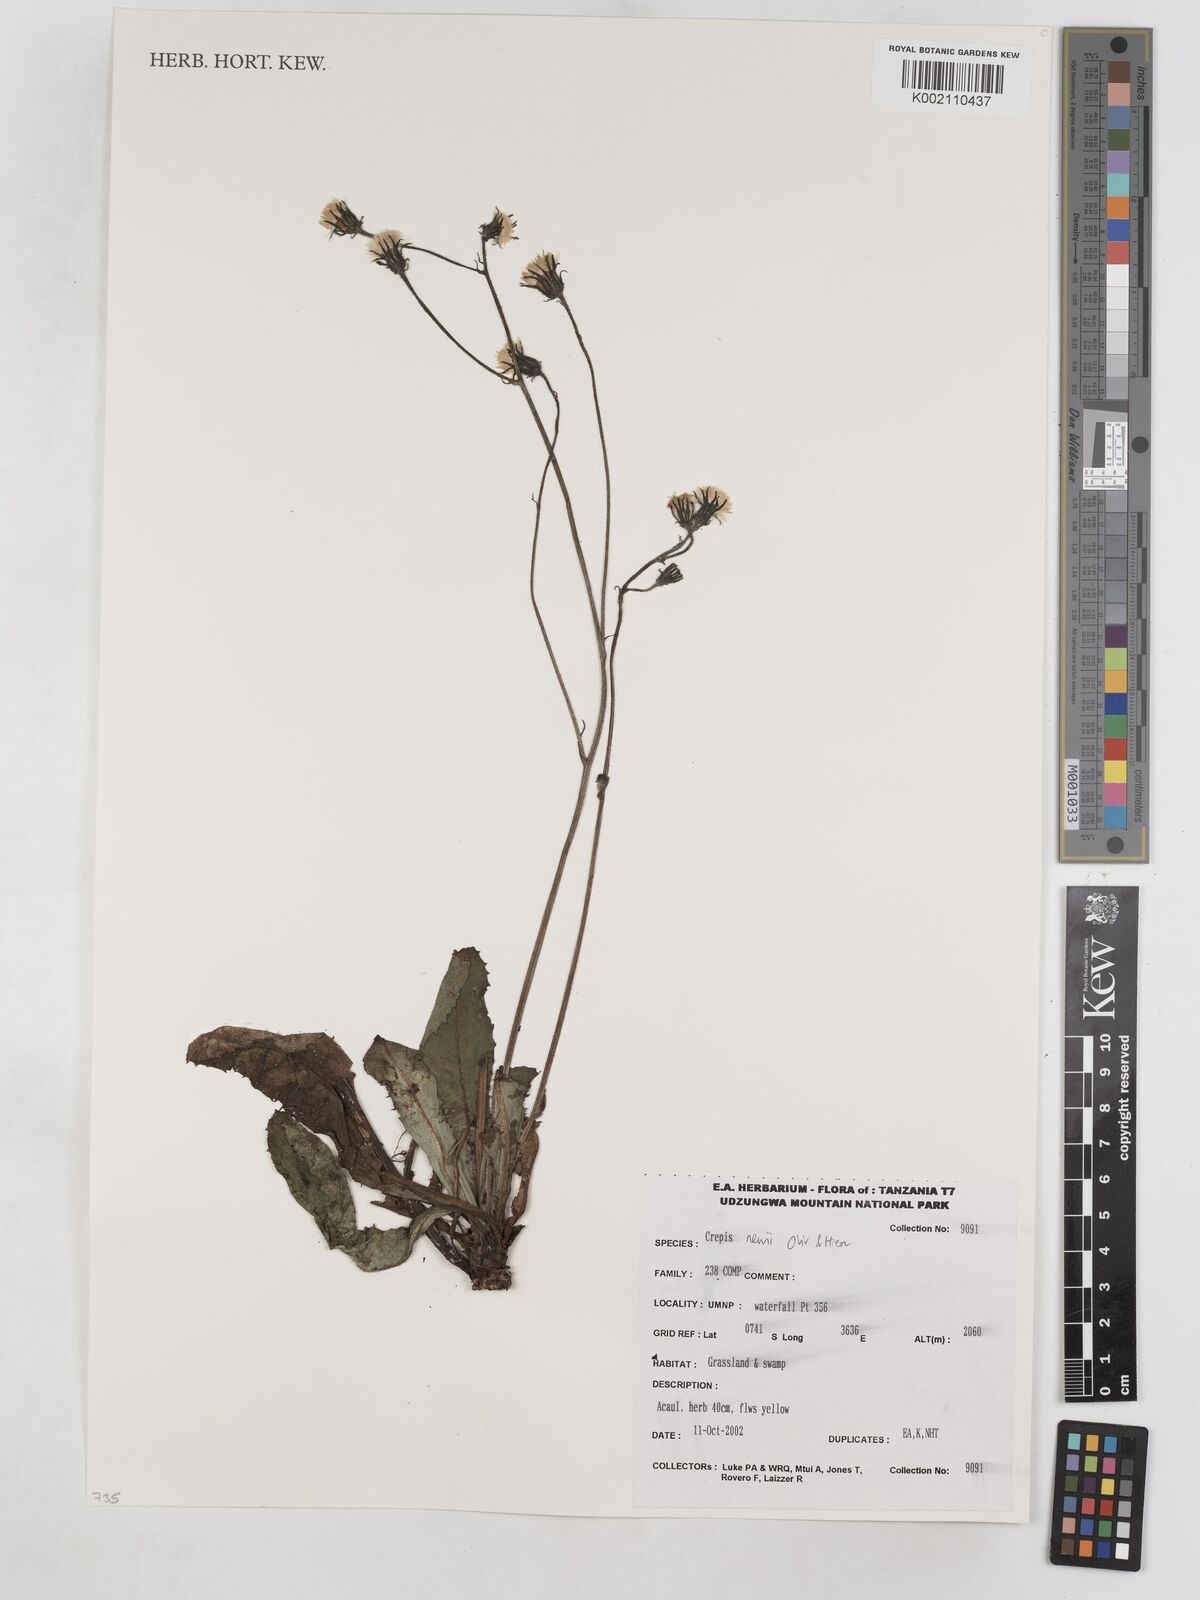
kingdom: Plantae
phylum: Tracheophyta
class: Magnoliopsida
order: Asterales
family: Asteraceae
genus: Crepis
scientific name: Crepis hypochoeridea
